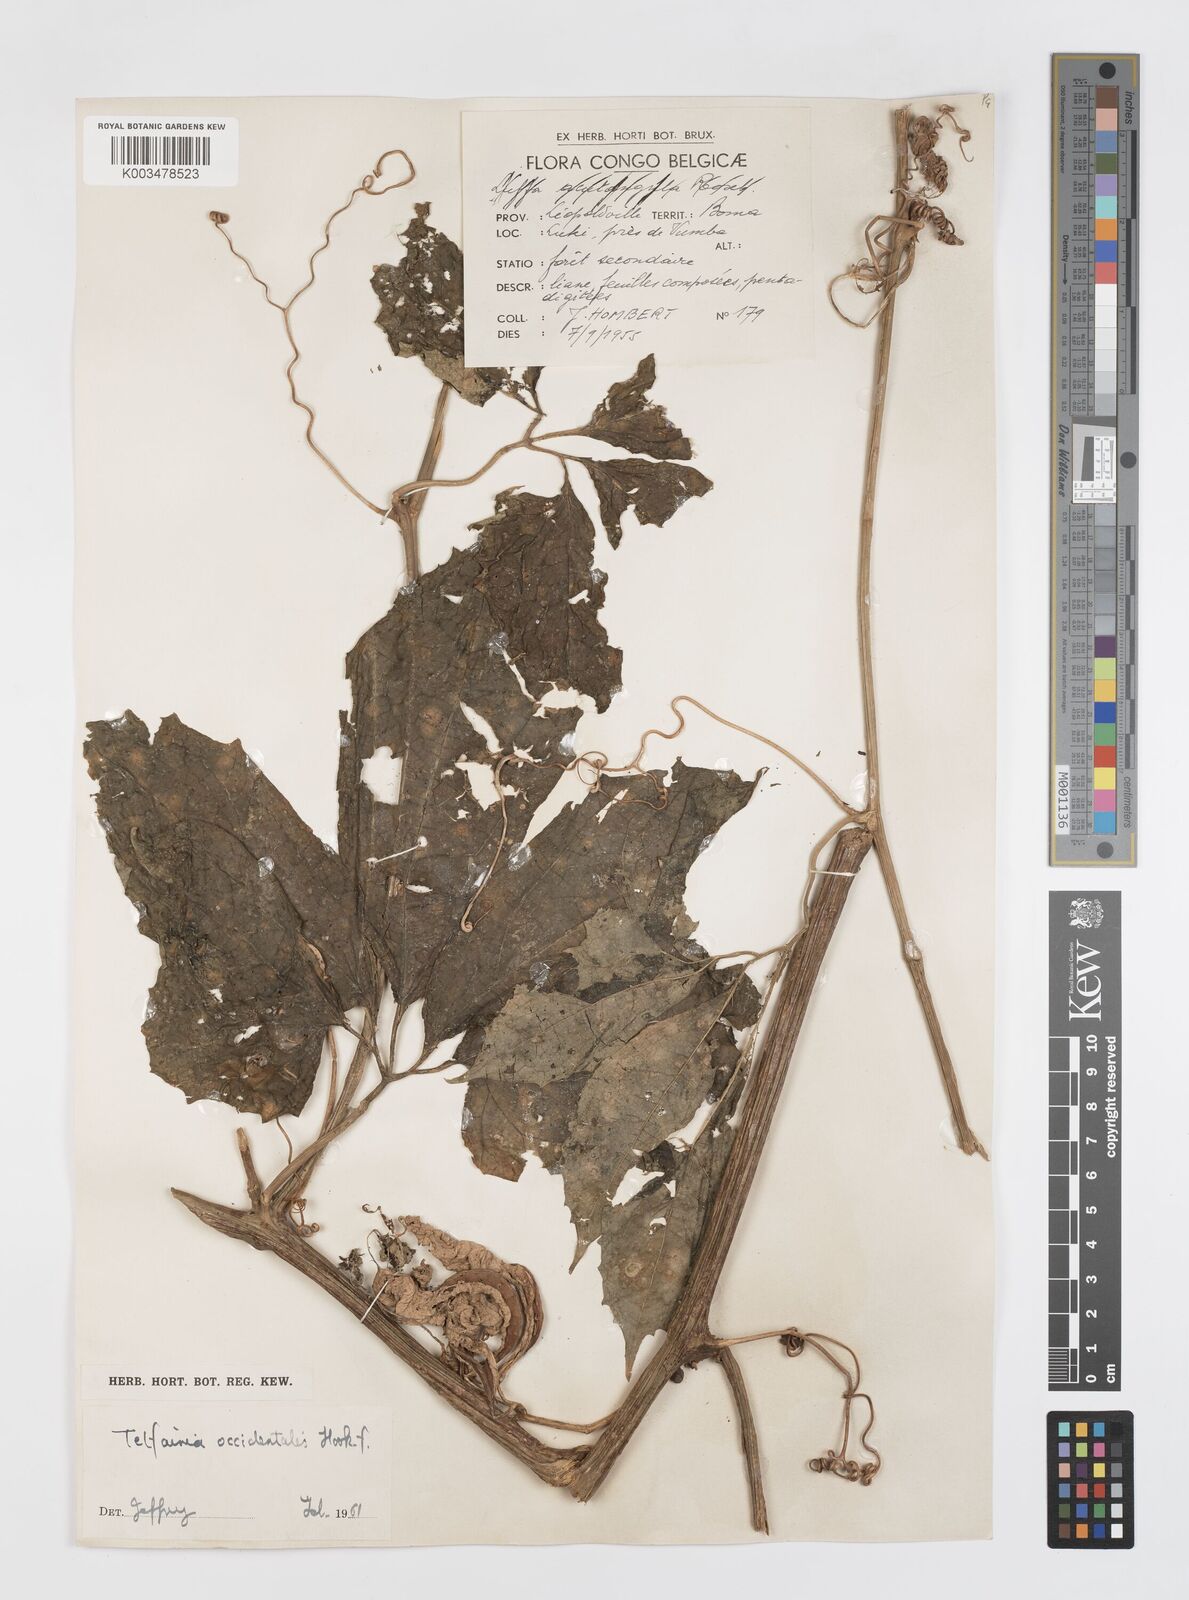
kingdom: Plantae
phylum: Tracheophyta
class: Magnoliopsida
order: Cucurbitales
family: Cucurbitaceae
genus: Telfairia
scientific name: Telfairia occidentalis
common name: Oysternut
